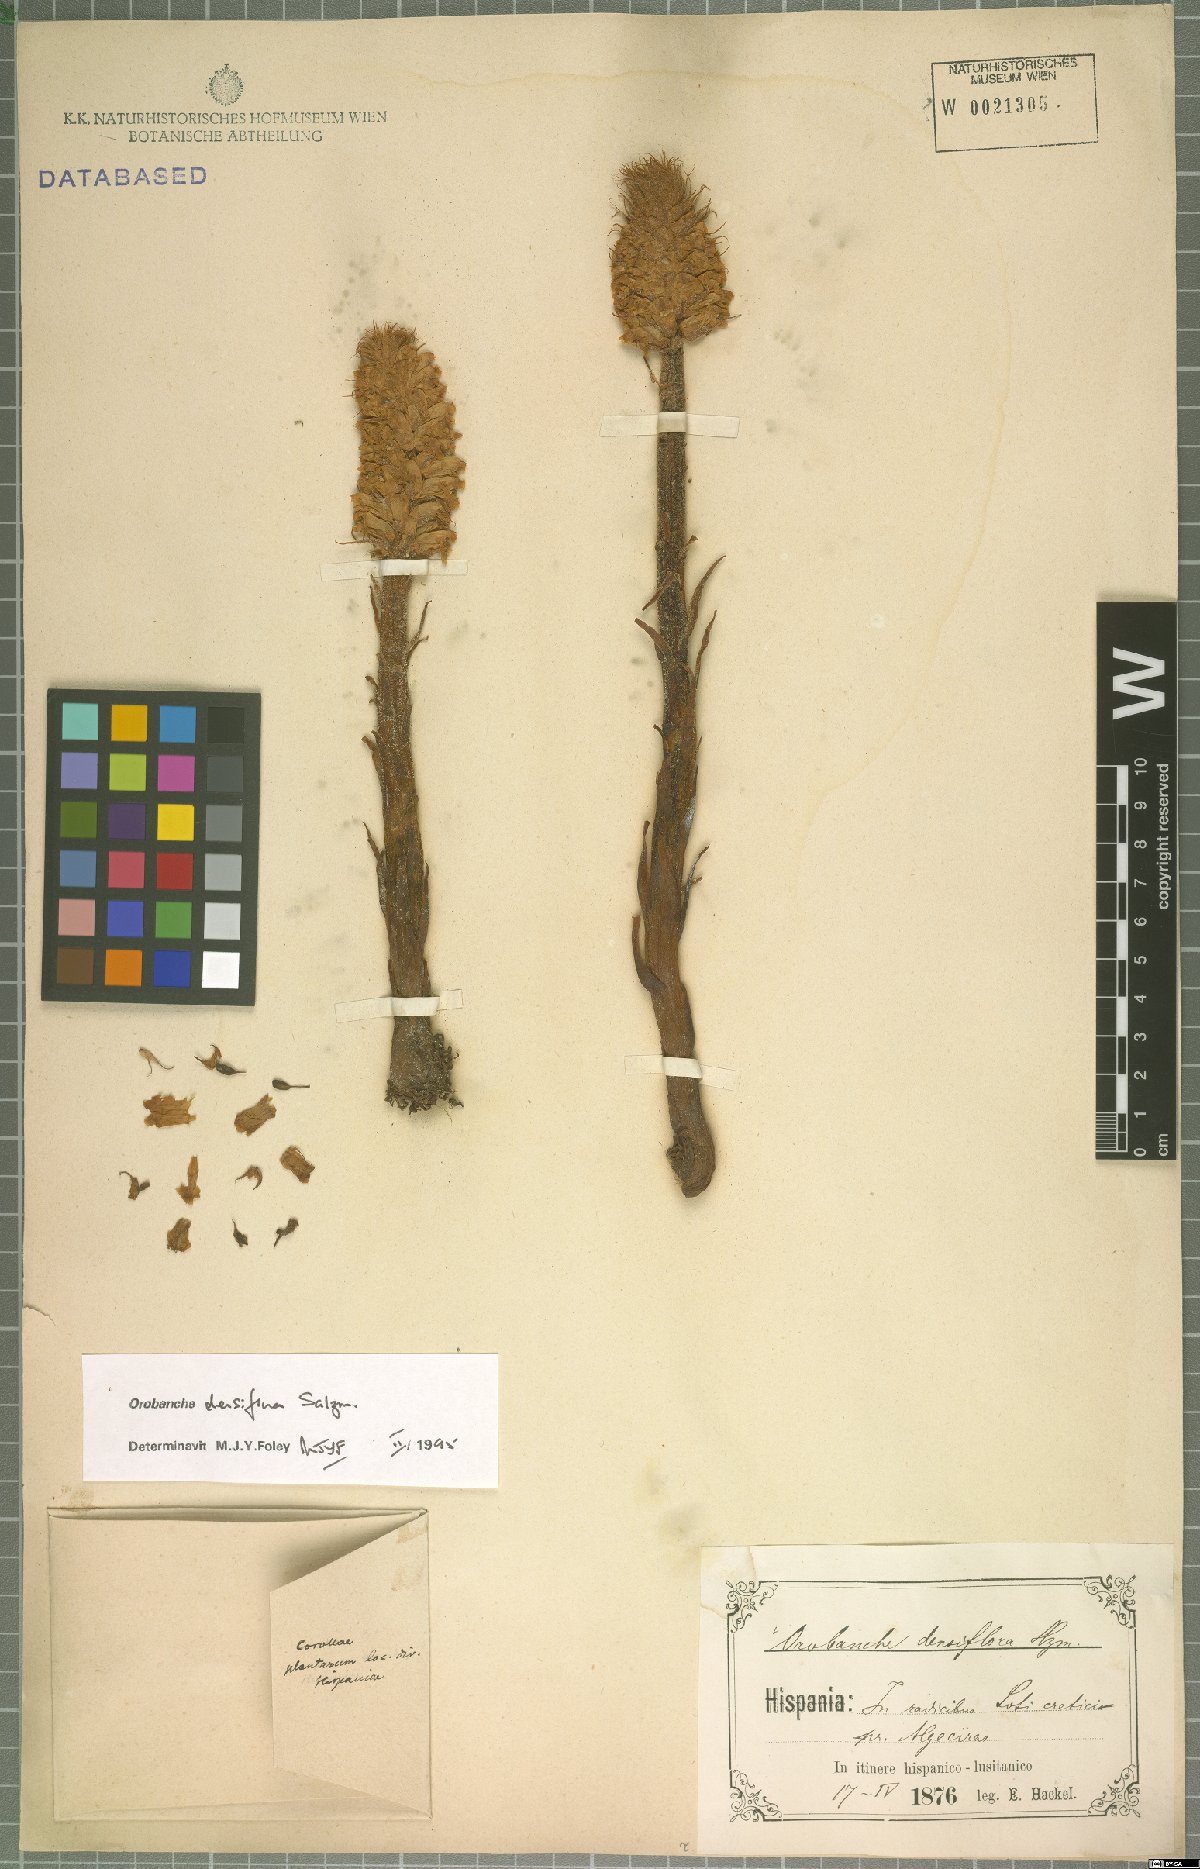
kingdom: Plantae
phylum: Tracheophyta
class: Magnoliopsida
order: Lamiales
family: Orobanchaceae
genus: Orobanche
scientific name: Orobanche densiflora
